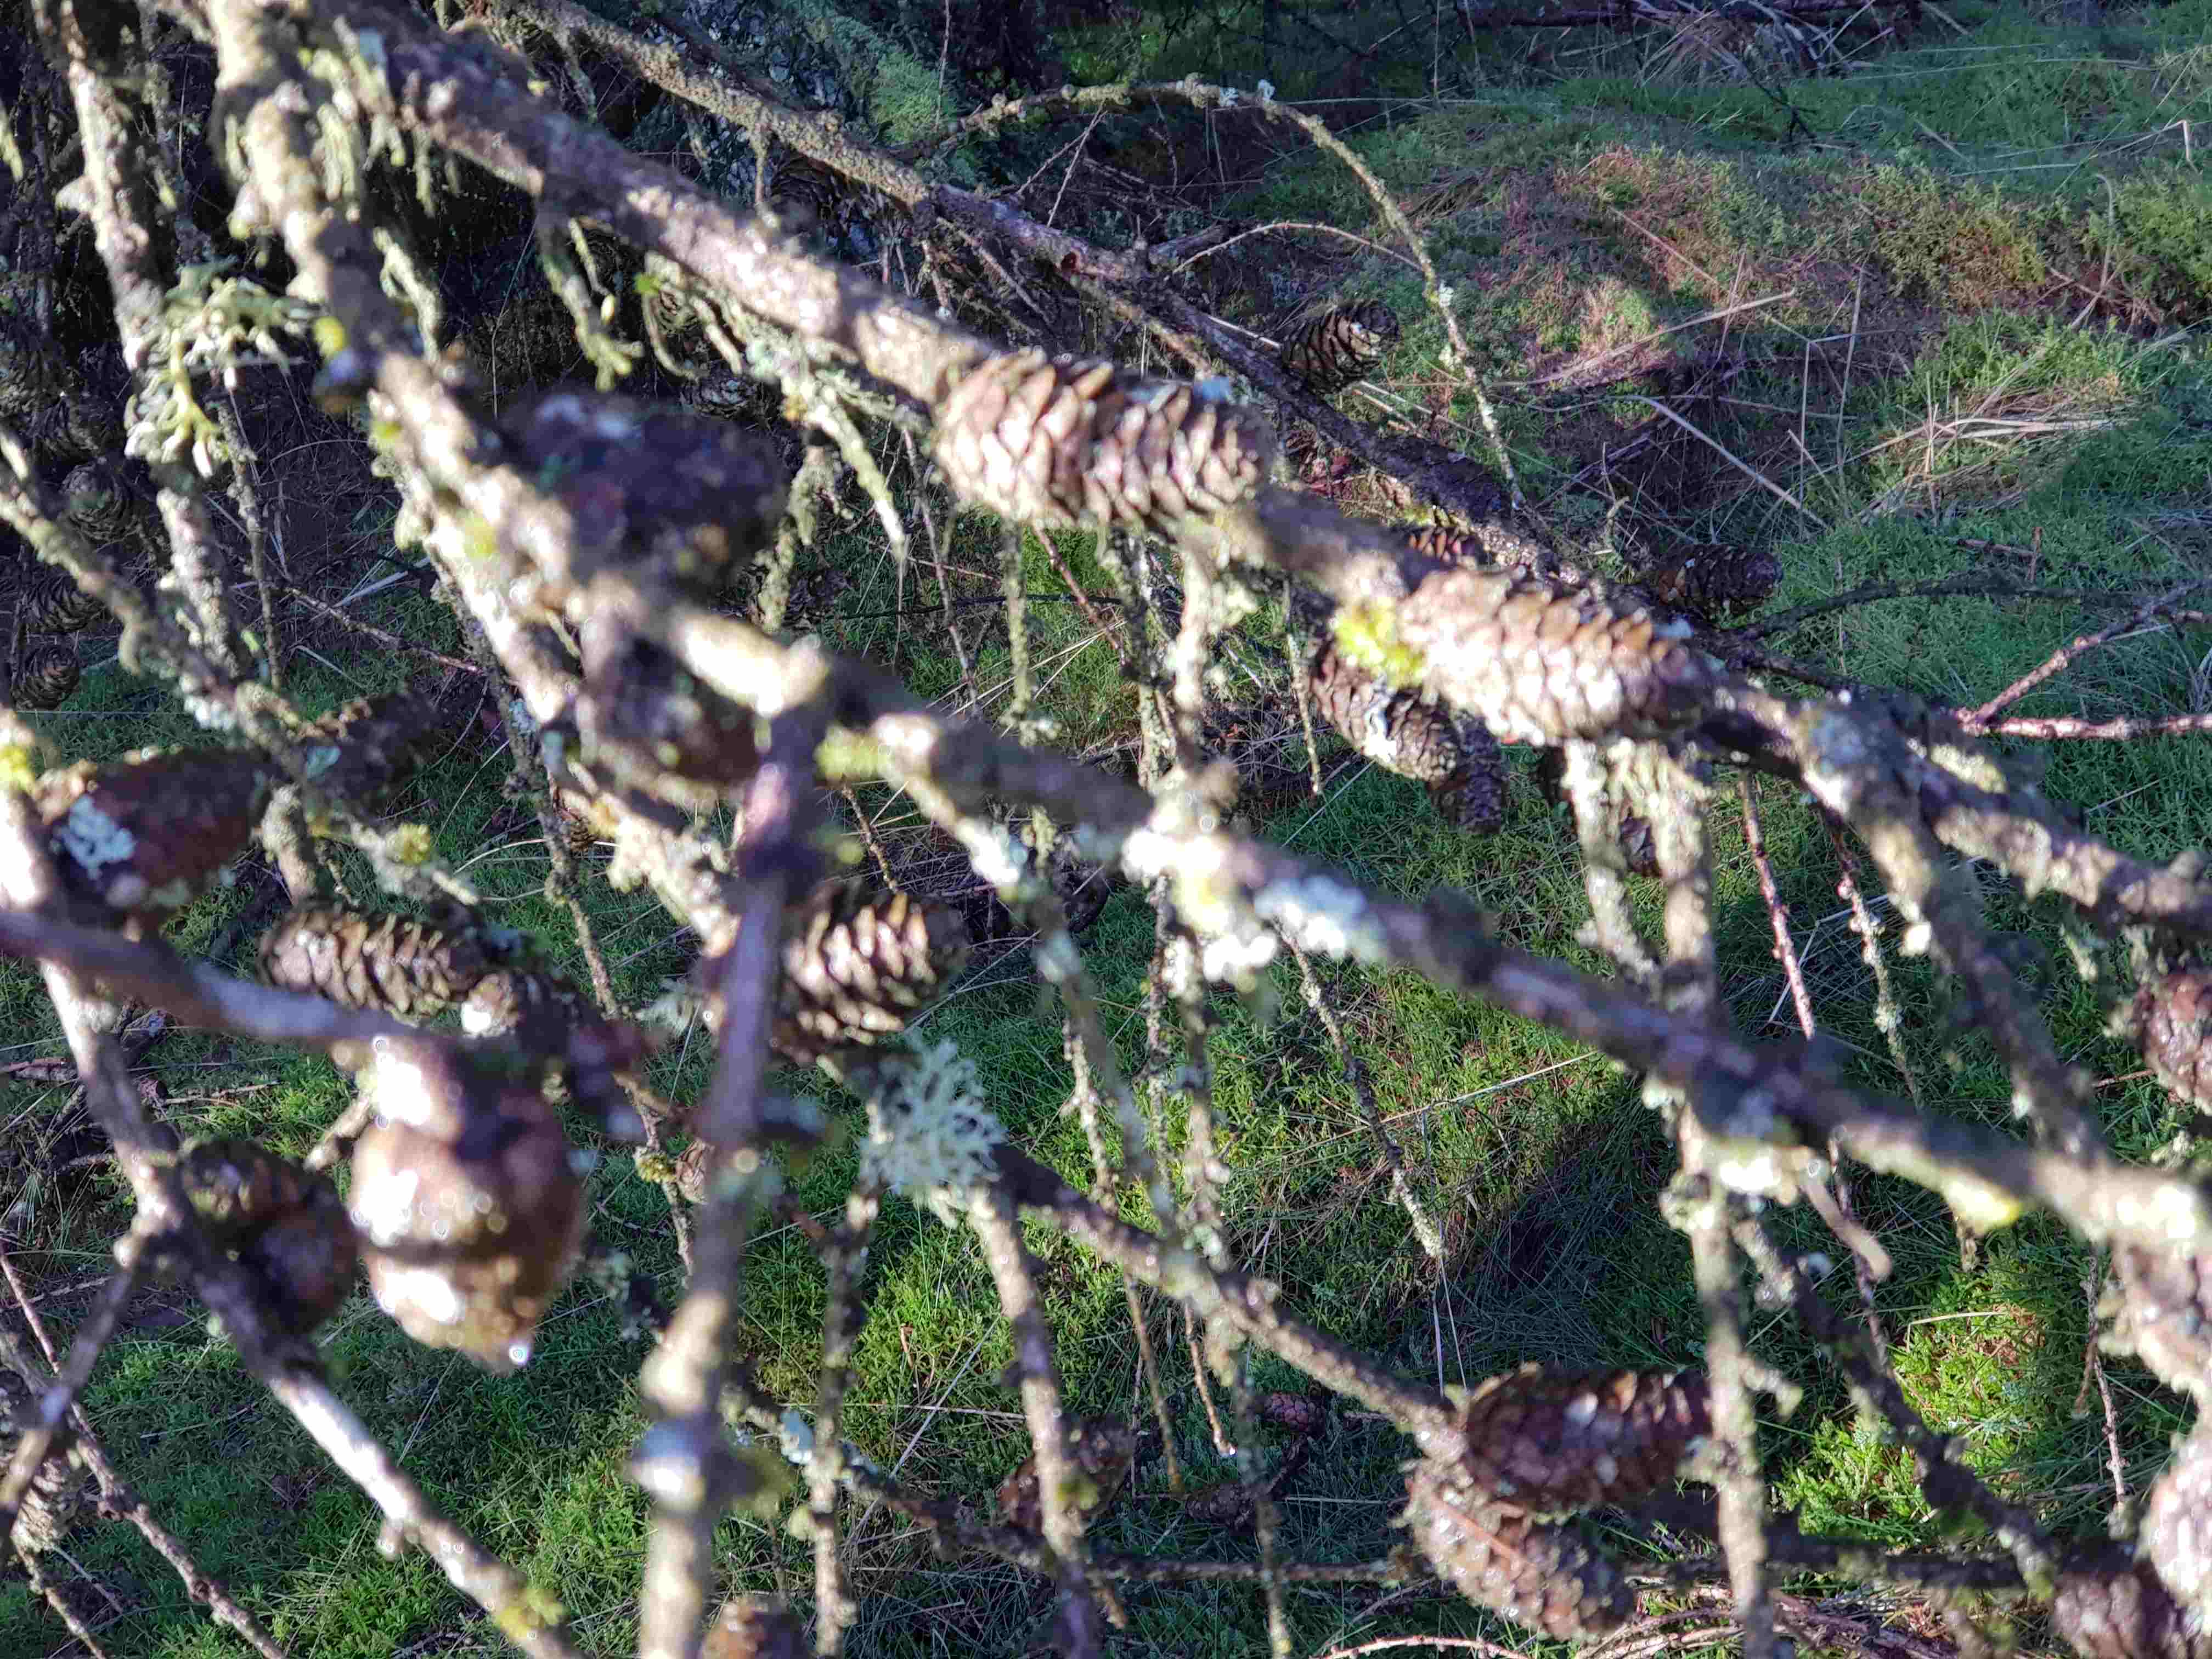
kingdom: Fungi
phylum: Ascomycota
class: Lecanoromycetes
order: Lecanorales
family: Parmeliaceae
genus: Evernia
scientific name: Evernia prunastri
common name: almindelig slåenlav
